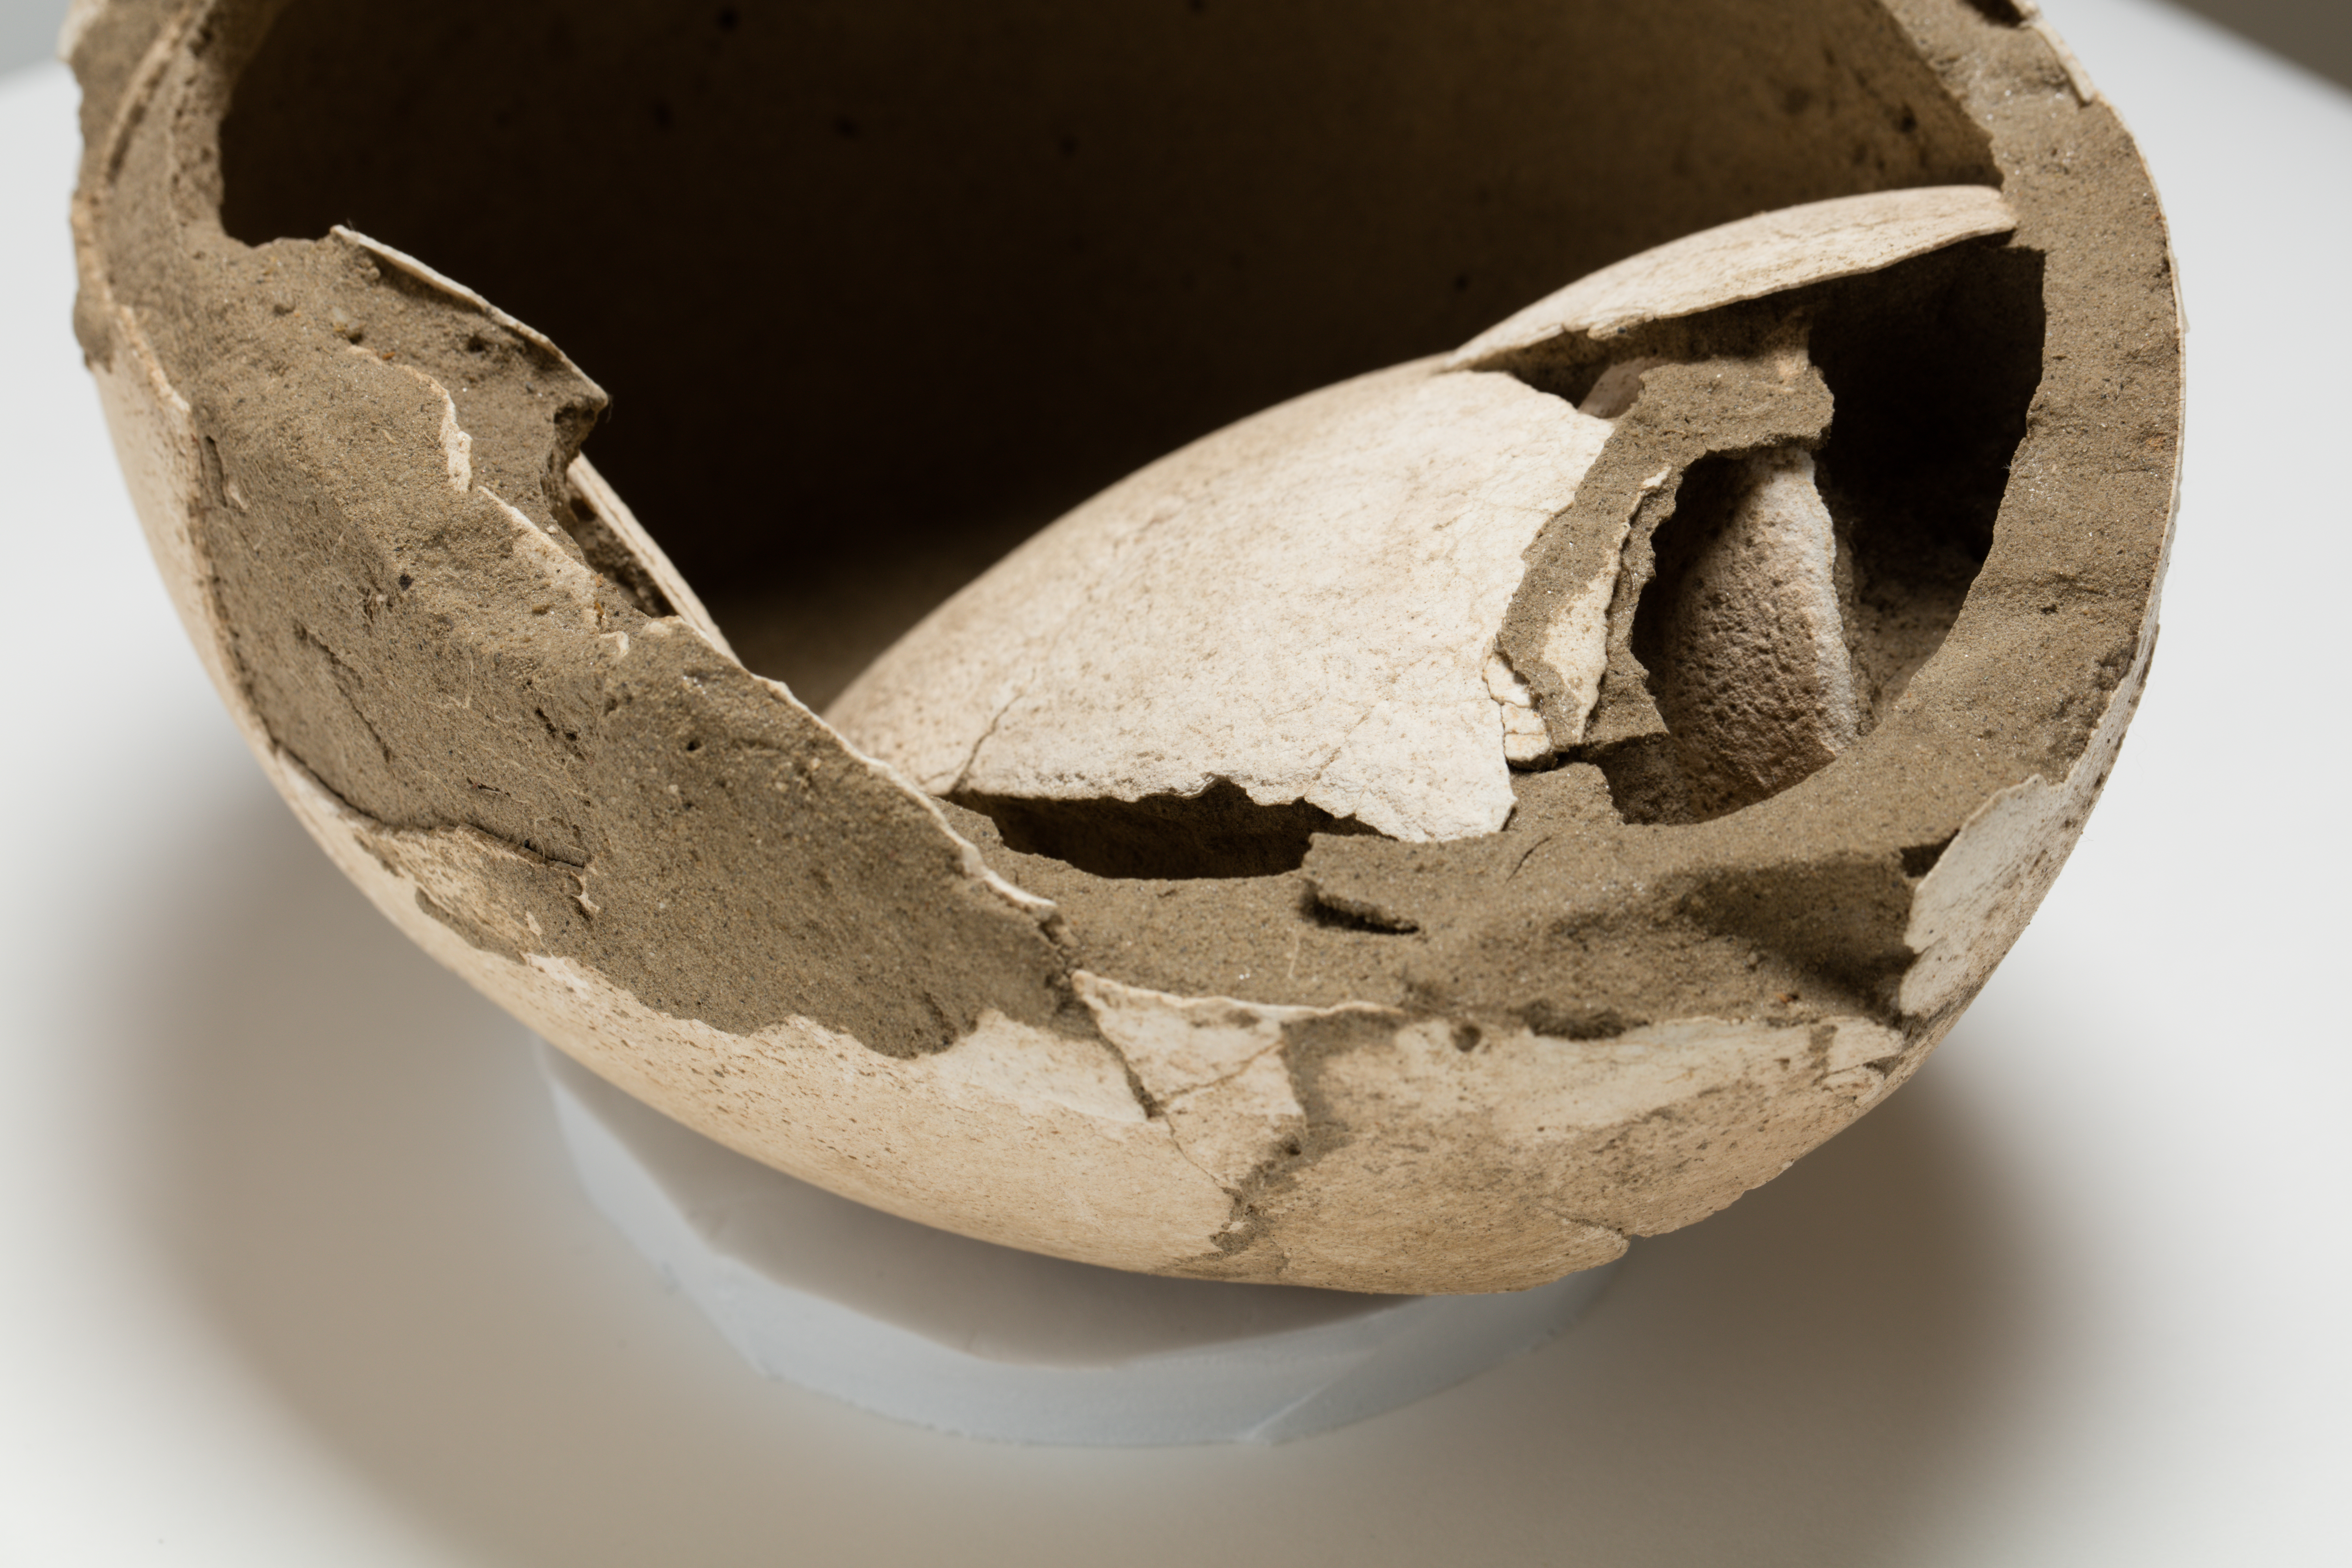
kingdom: Animalia
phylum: Chordata
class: Aves
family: Emeidae
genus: Euryapteryx
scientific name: Euryapteryx Emeus gravipes
